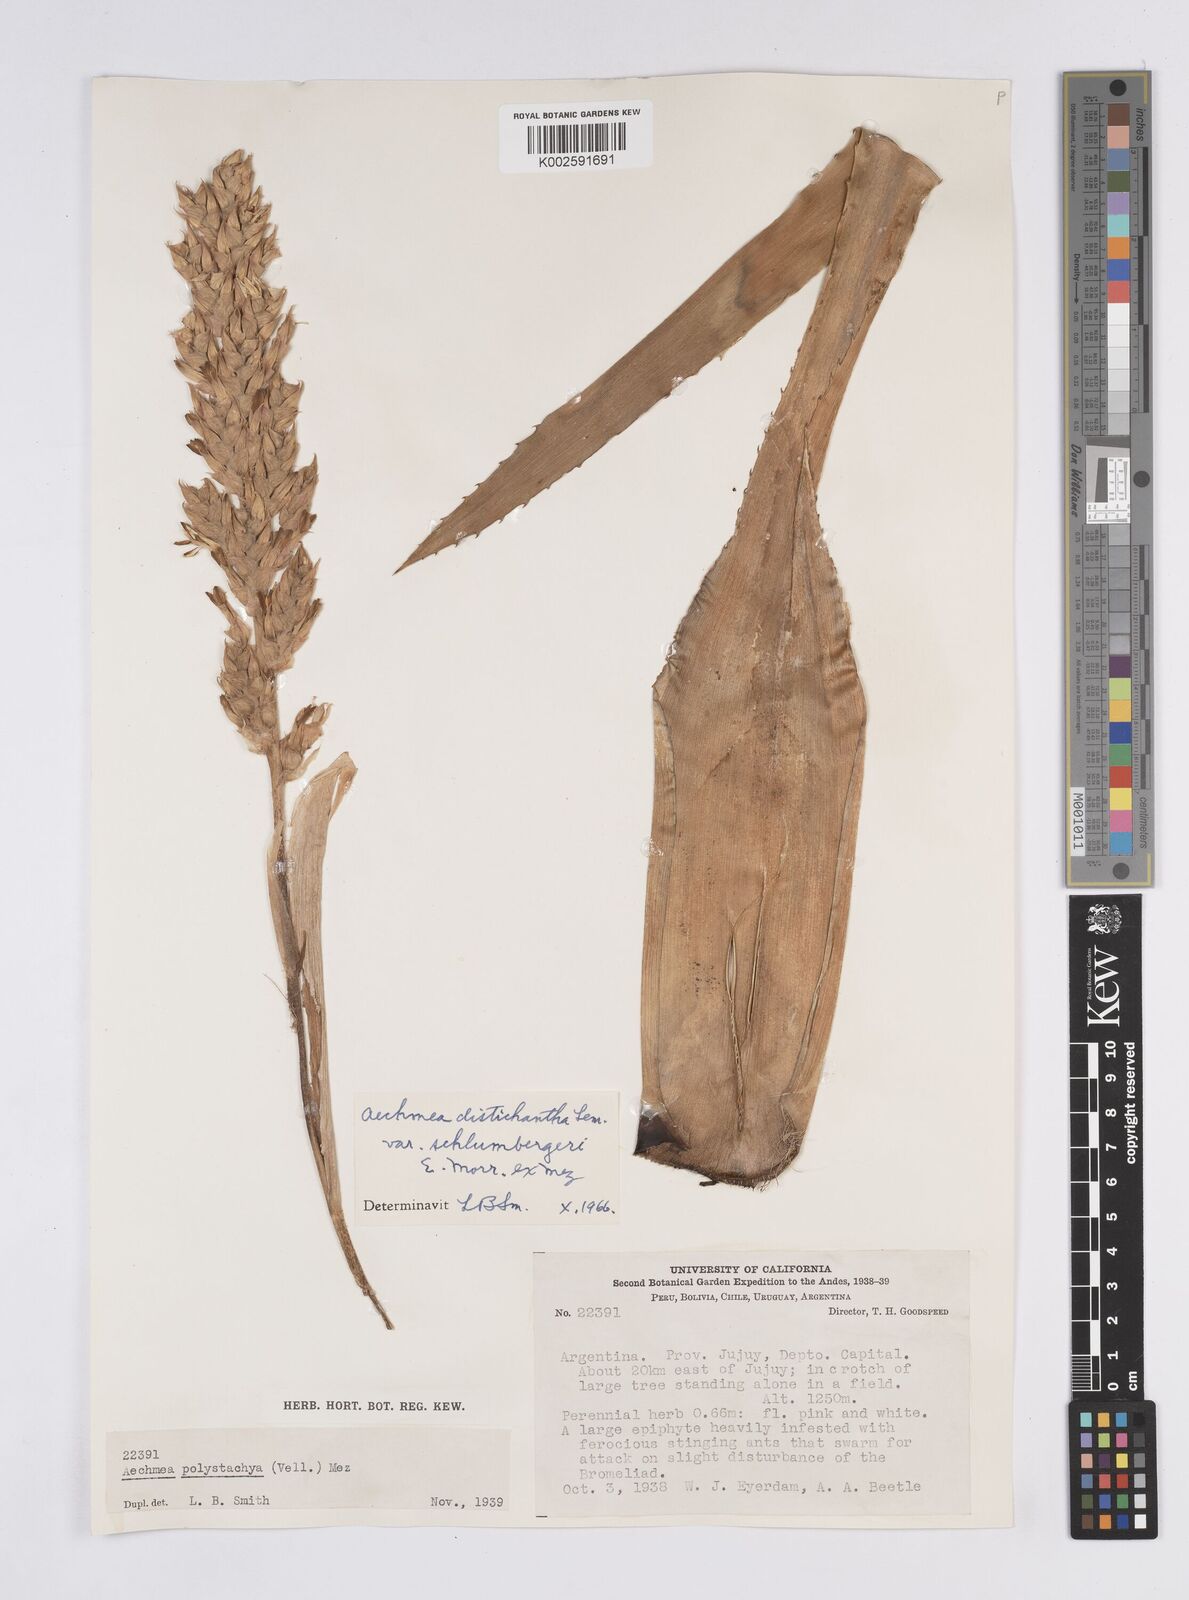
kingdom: Plantae
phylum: Tracheophyta
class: Liliopsida
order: Poales
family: Bromeliaceae
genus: Aechmea
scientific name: Aechmea distichantha
